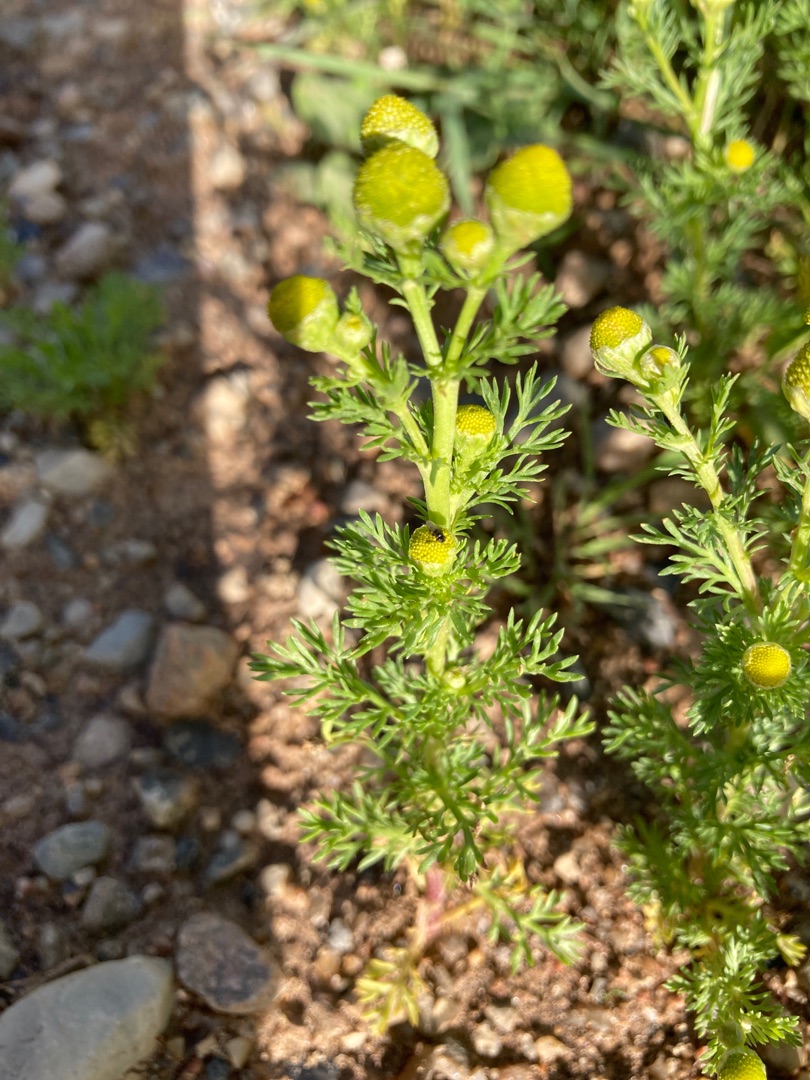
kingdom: Plantae
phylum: Tracheophyta
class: Magnoliopsida
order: Asterales
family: Asteraceae
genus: Matricaria
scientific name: Matricaria discoidea
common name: Skive-kamille
